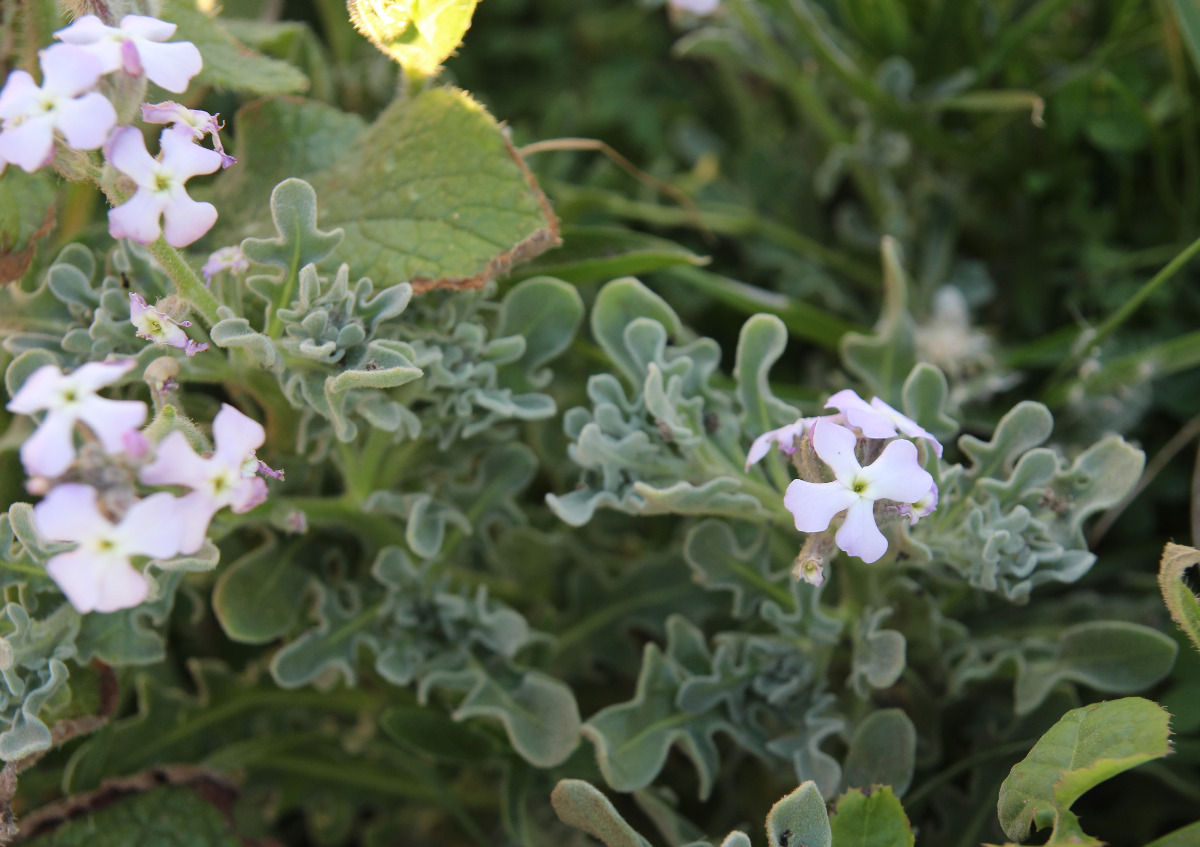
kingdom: Plantae
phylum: Tracheophyta
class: Magnoliopsida
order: Brassicales
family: Brassicaceae
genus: Matthiola
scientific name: Matthiola tricuspidata
